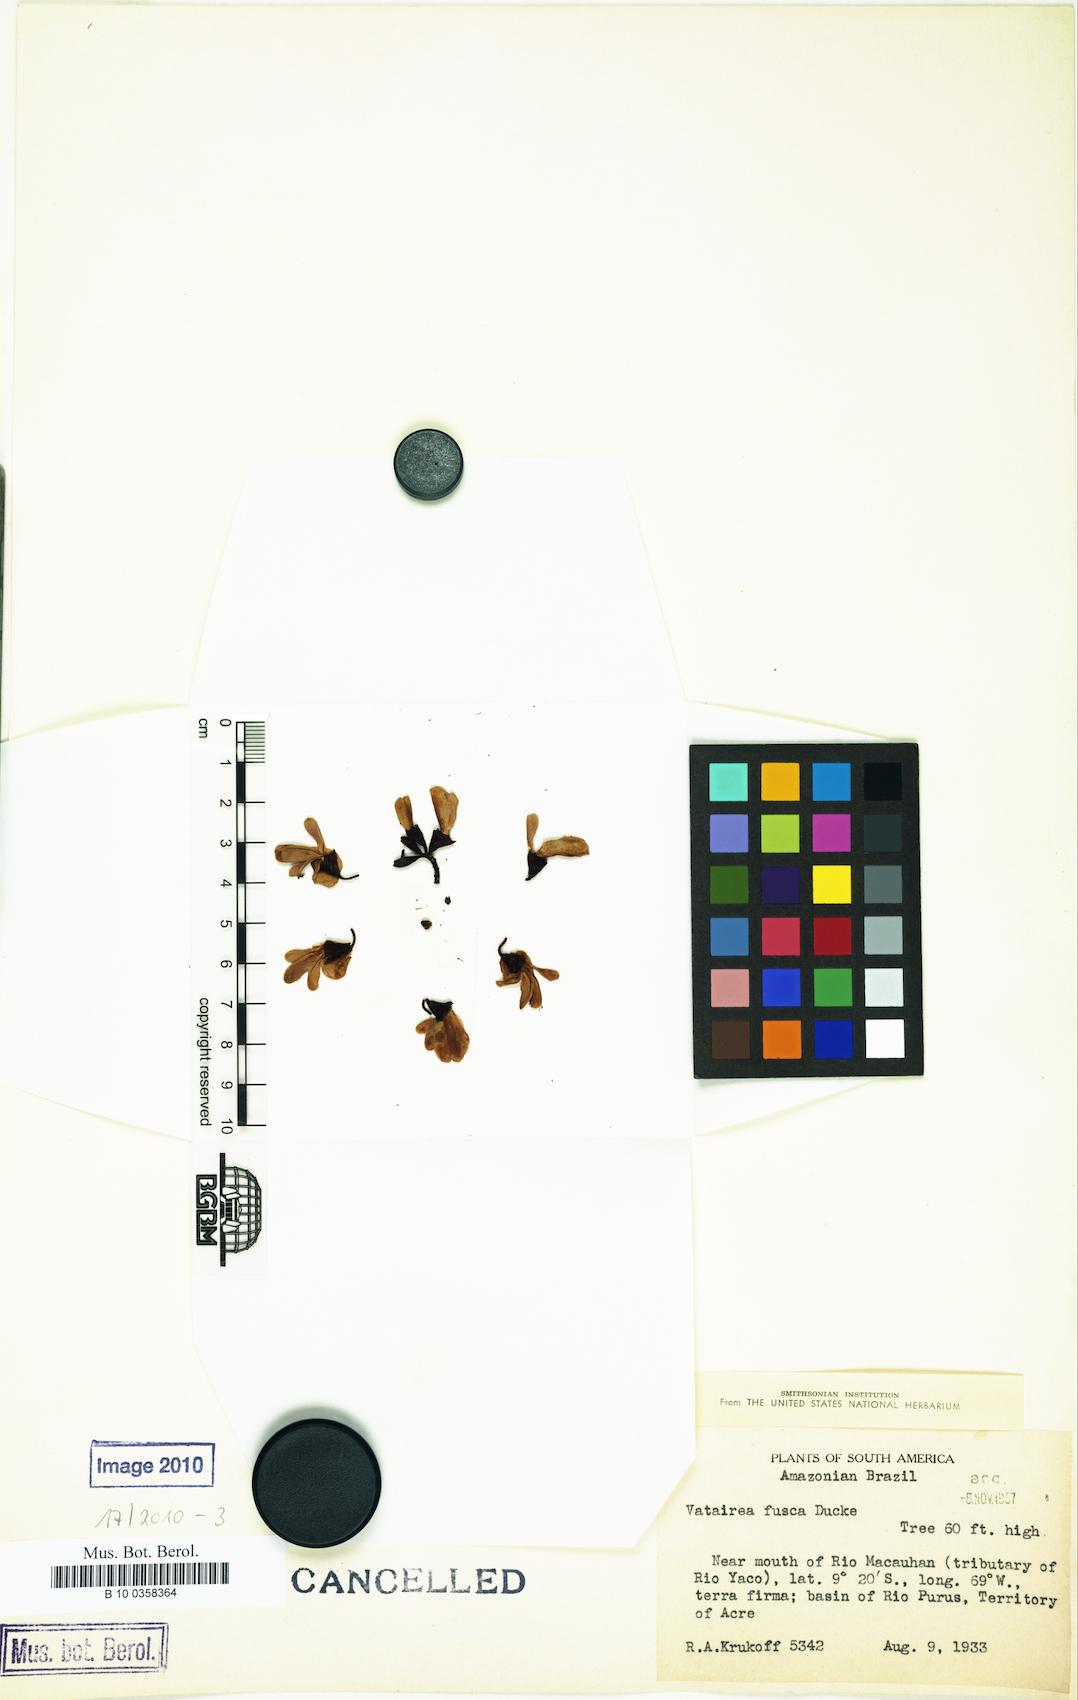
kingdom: Plantae
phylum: Tracheophyta
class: Magnoliopsida
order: Fabales
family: Fabaceae
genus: Vatairea
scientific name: Vatairea fusca
